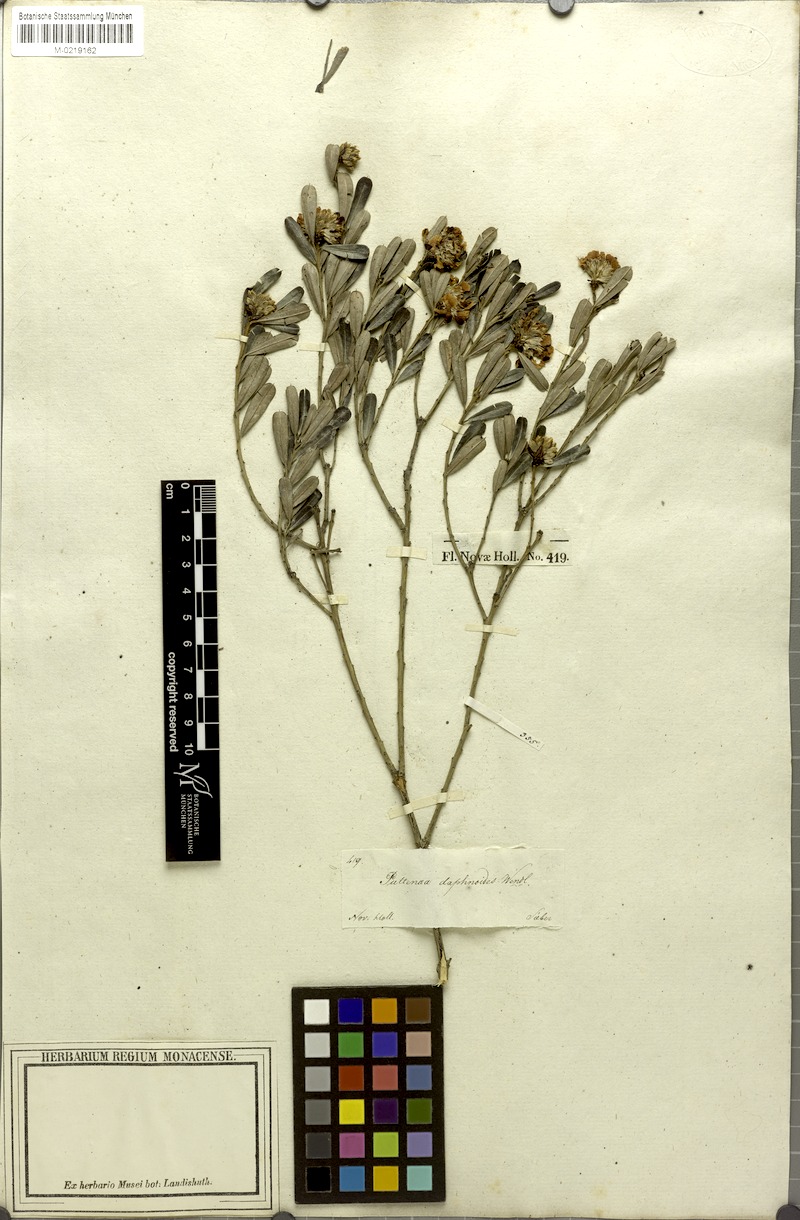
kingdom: Plantae
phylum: Tracheophyta
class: Magnoliopsida
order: Fabales
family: Fabaceae
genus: Pultenaea
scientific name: Pultenaea daphnoides
